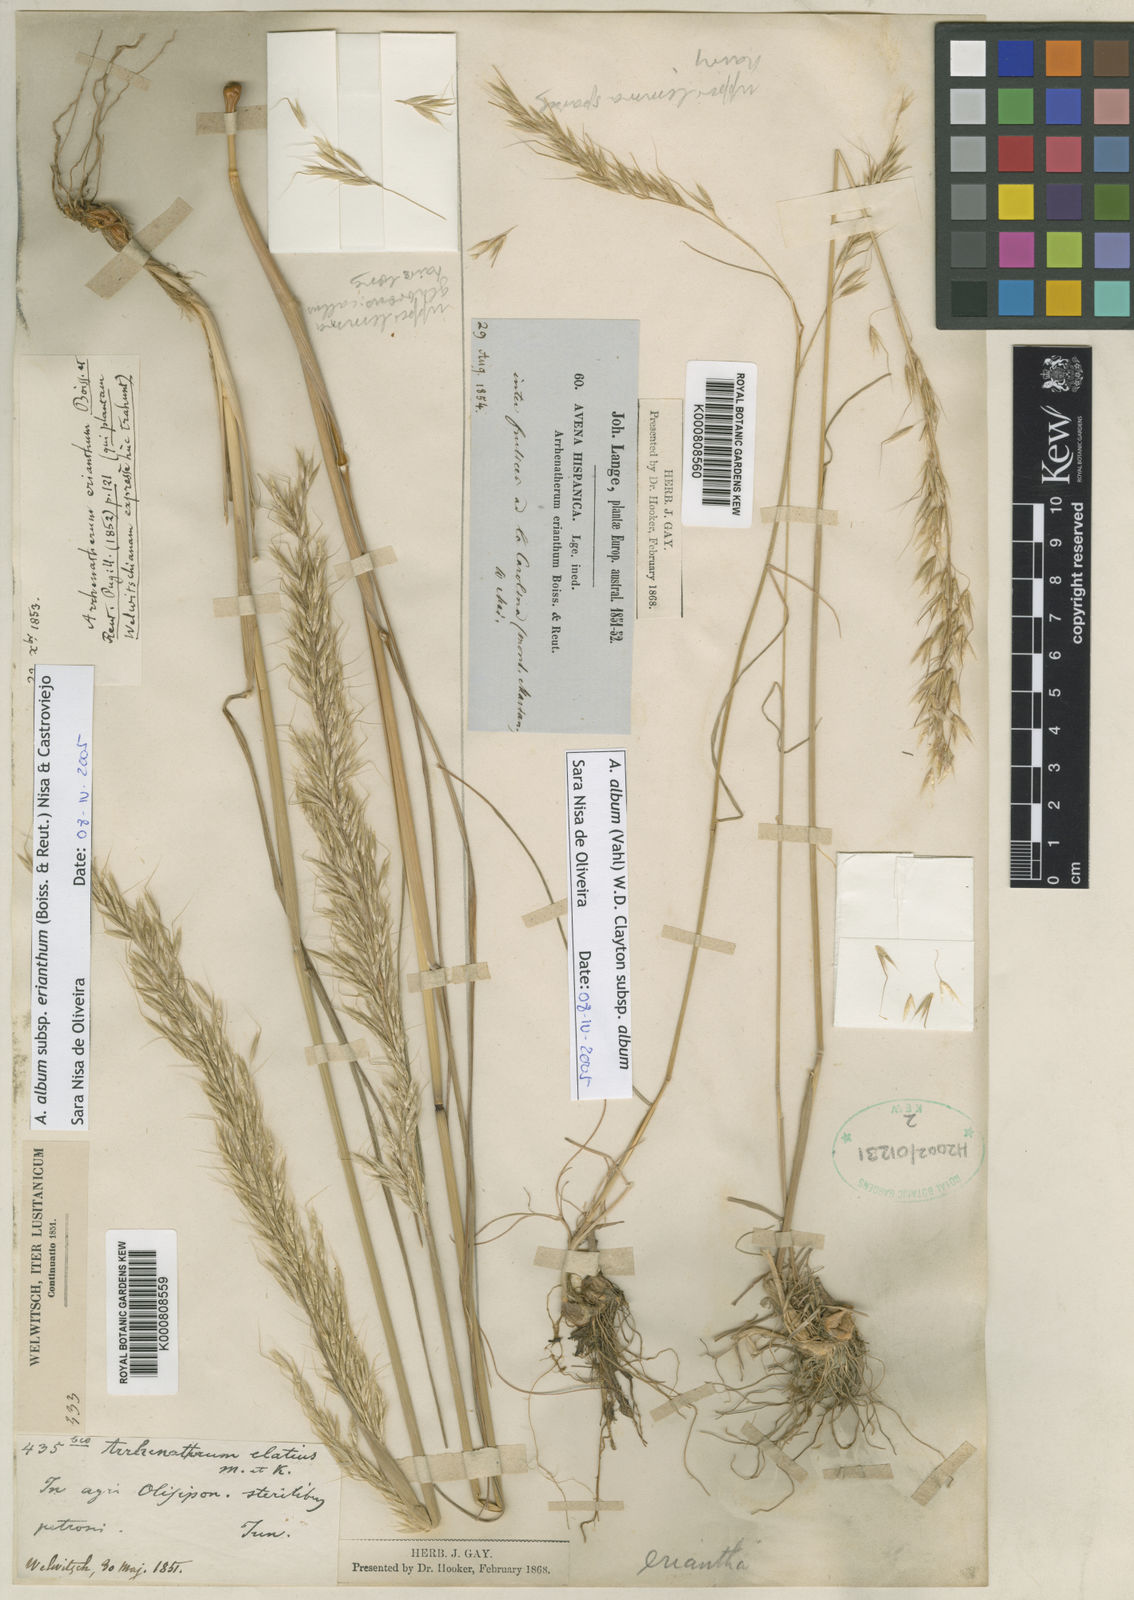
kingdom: Plantae
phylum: Tracheophyta
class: Liliopsida
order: Poales
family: Poaceae
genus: Arrhenatherum
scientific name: Arrhenatherum album
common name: Tall oat grass
